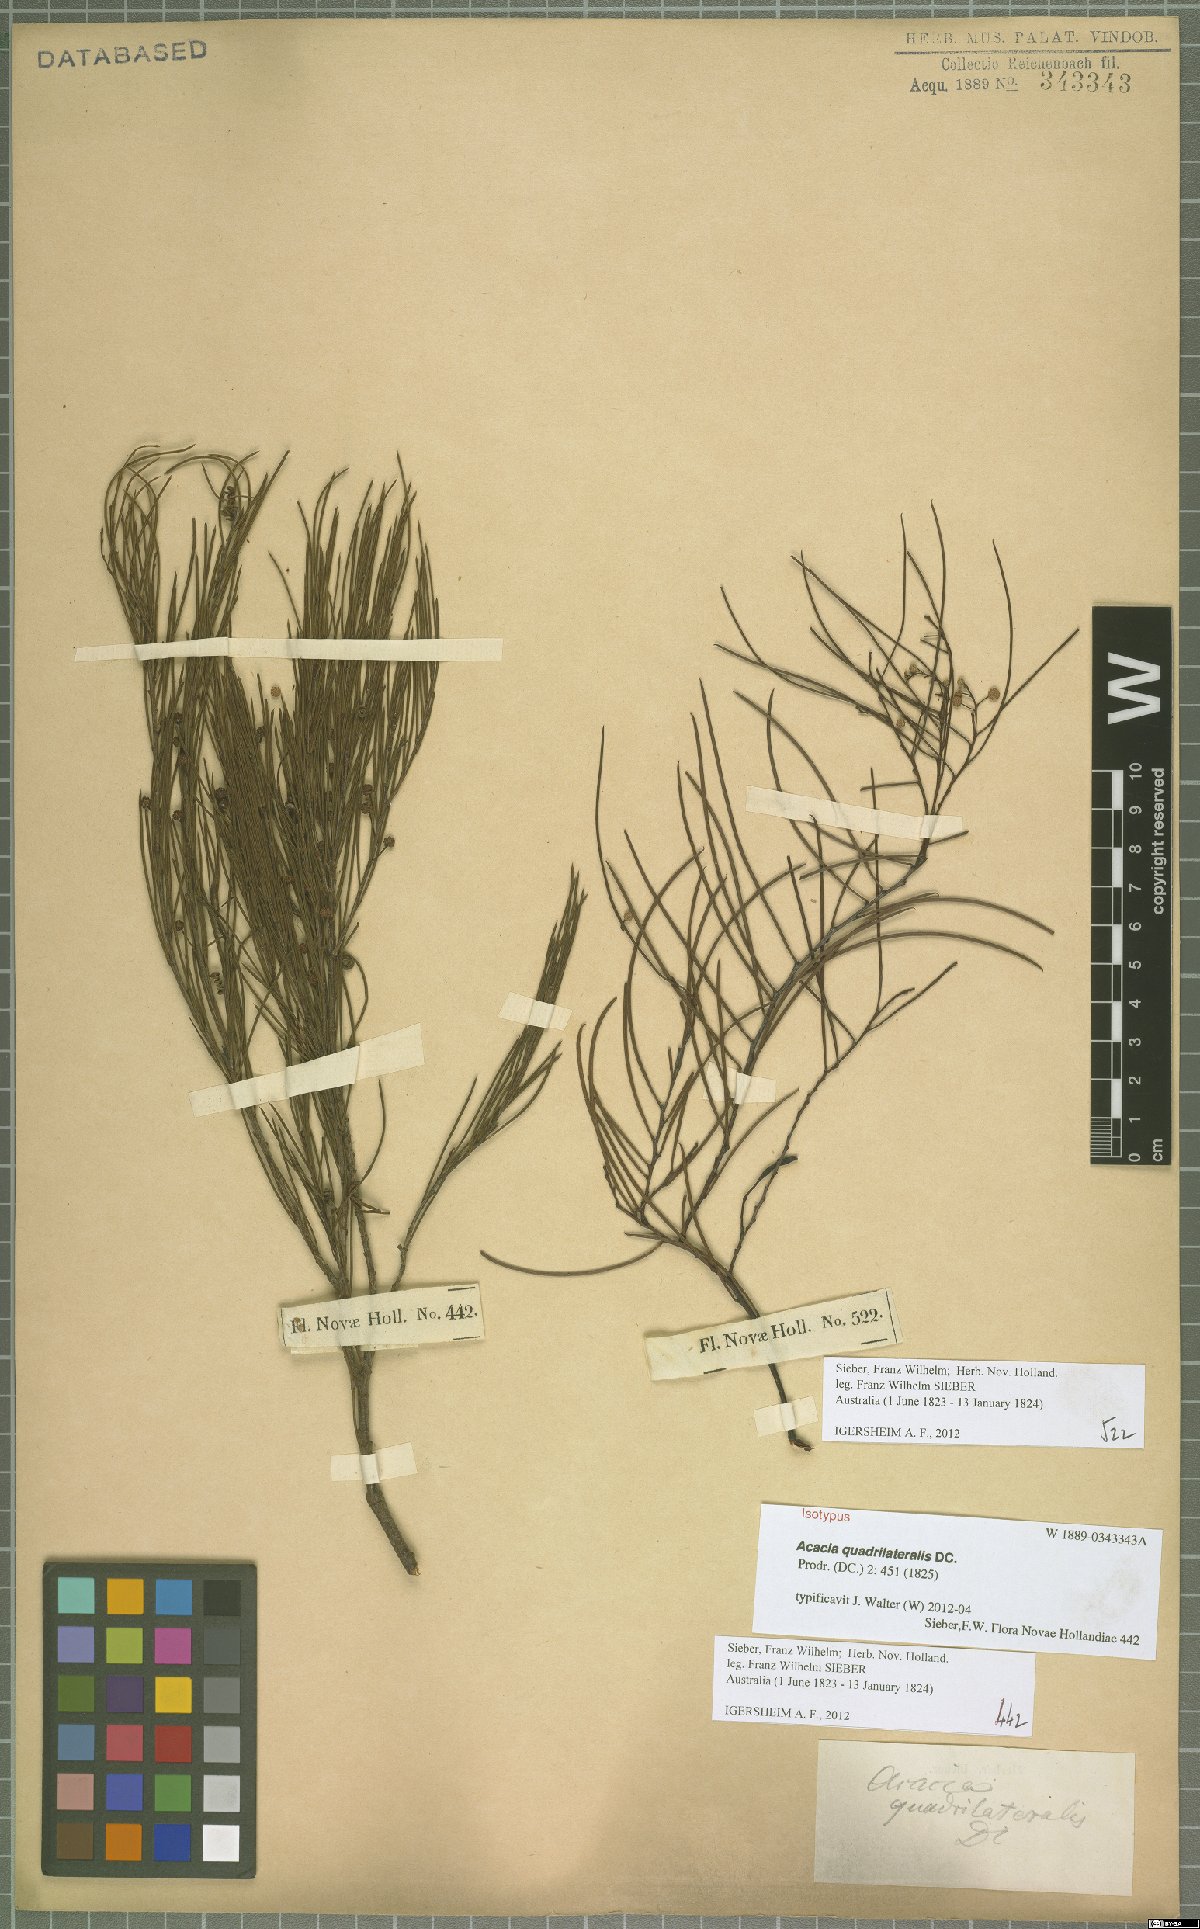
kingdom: Plantae
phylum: Tracheophyta
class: Magnoliopsida
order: Fabales
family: Fabaceae
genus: Acacia
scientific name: Acacia quadrilateralis
